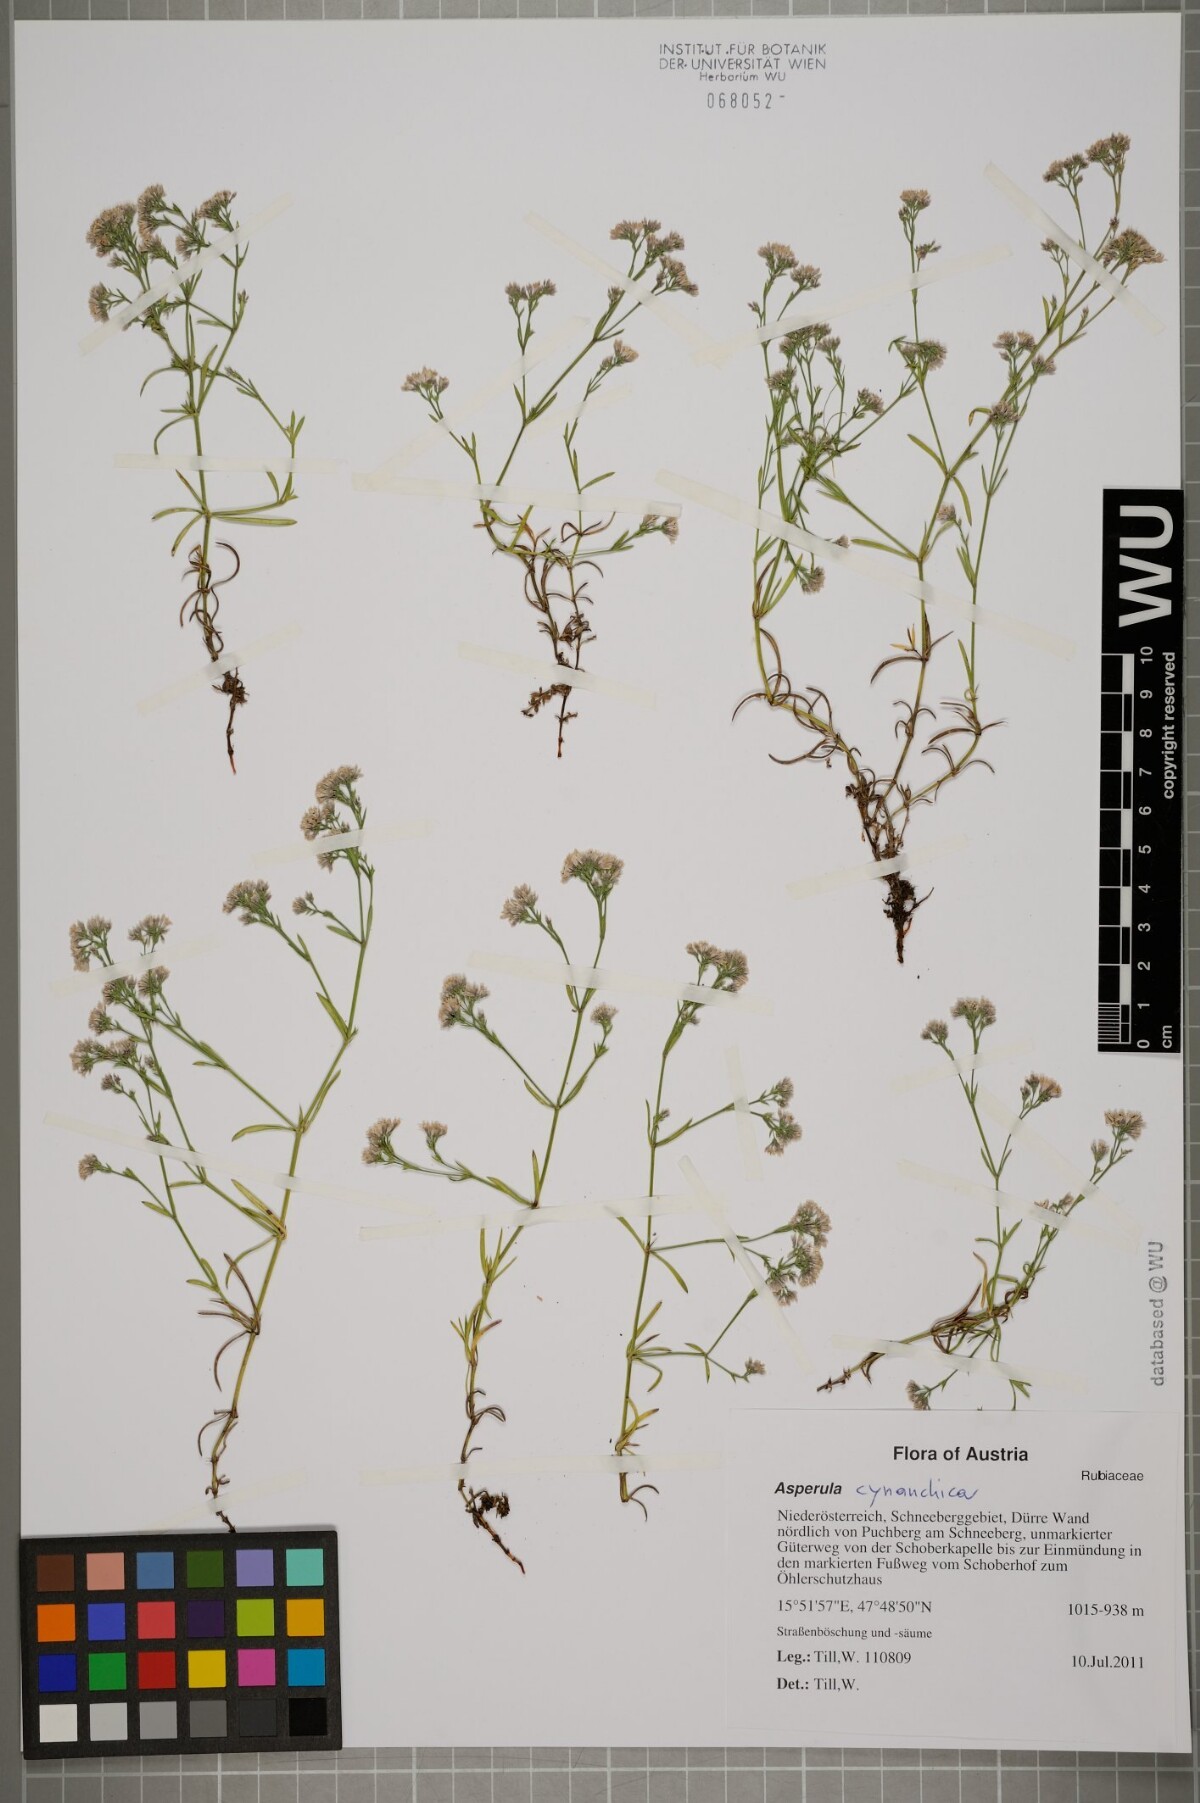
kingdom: Plantae
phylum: Tracheophyta
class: Magnoliopsida
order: Gentianales
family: Rubiaceae
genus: Cynanchica
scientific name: Cynanchica pyrenaica
